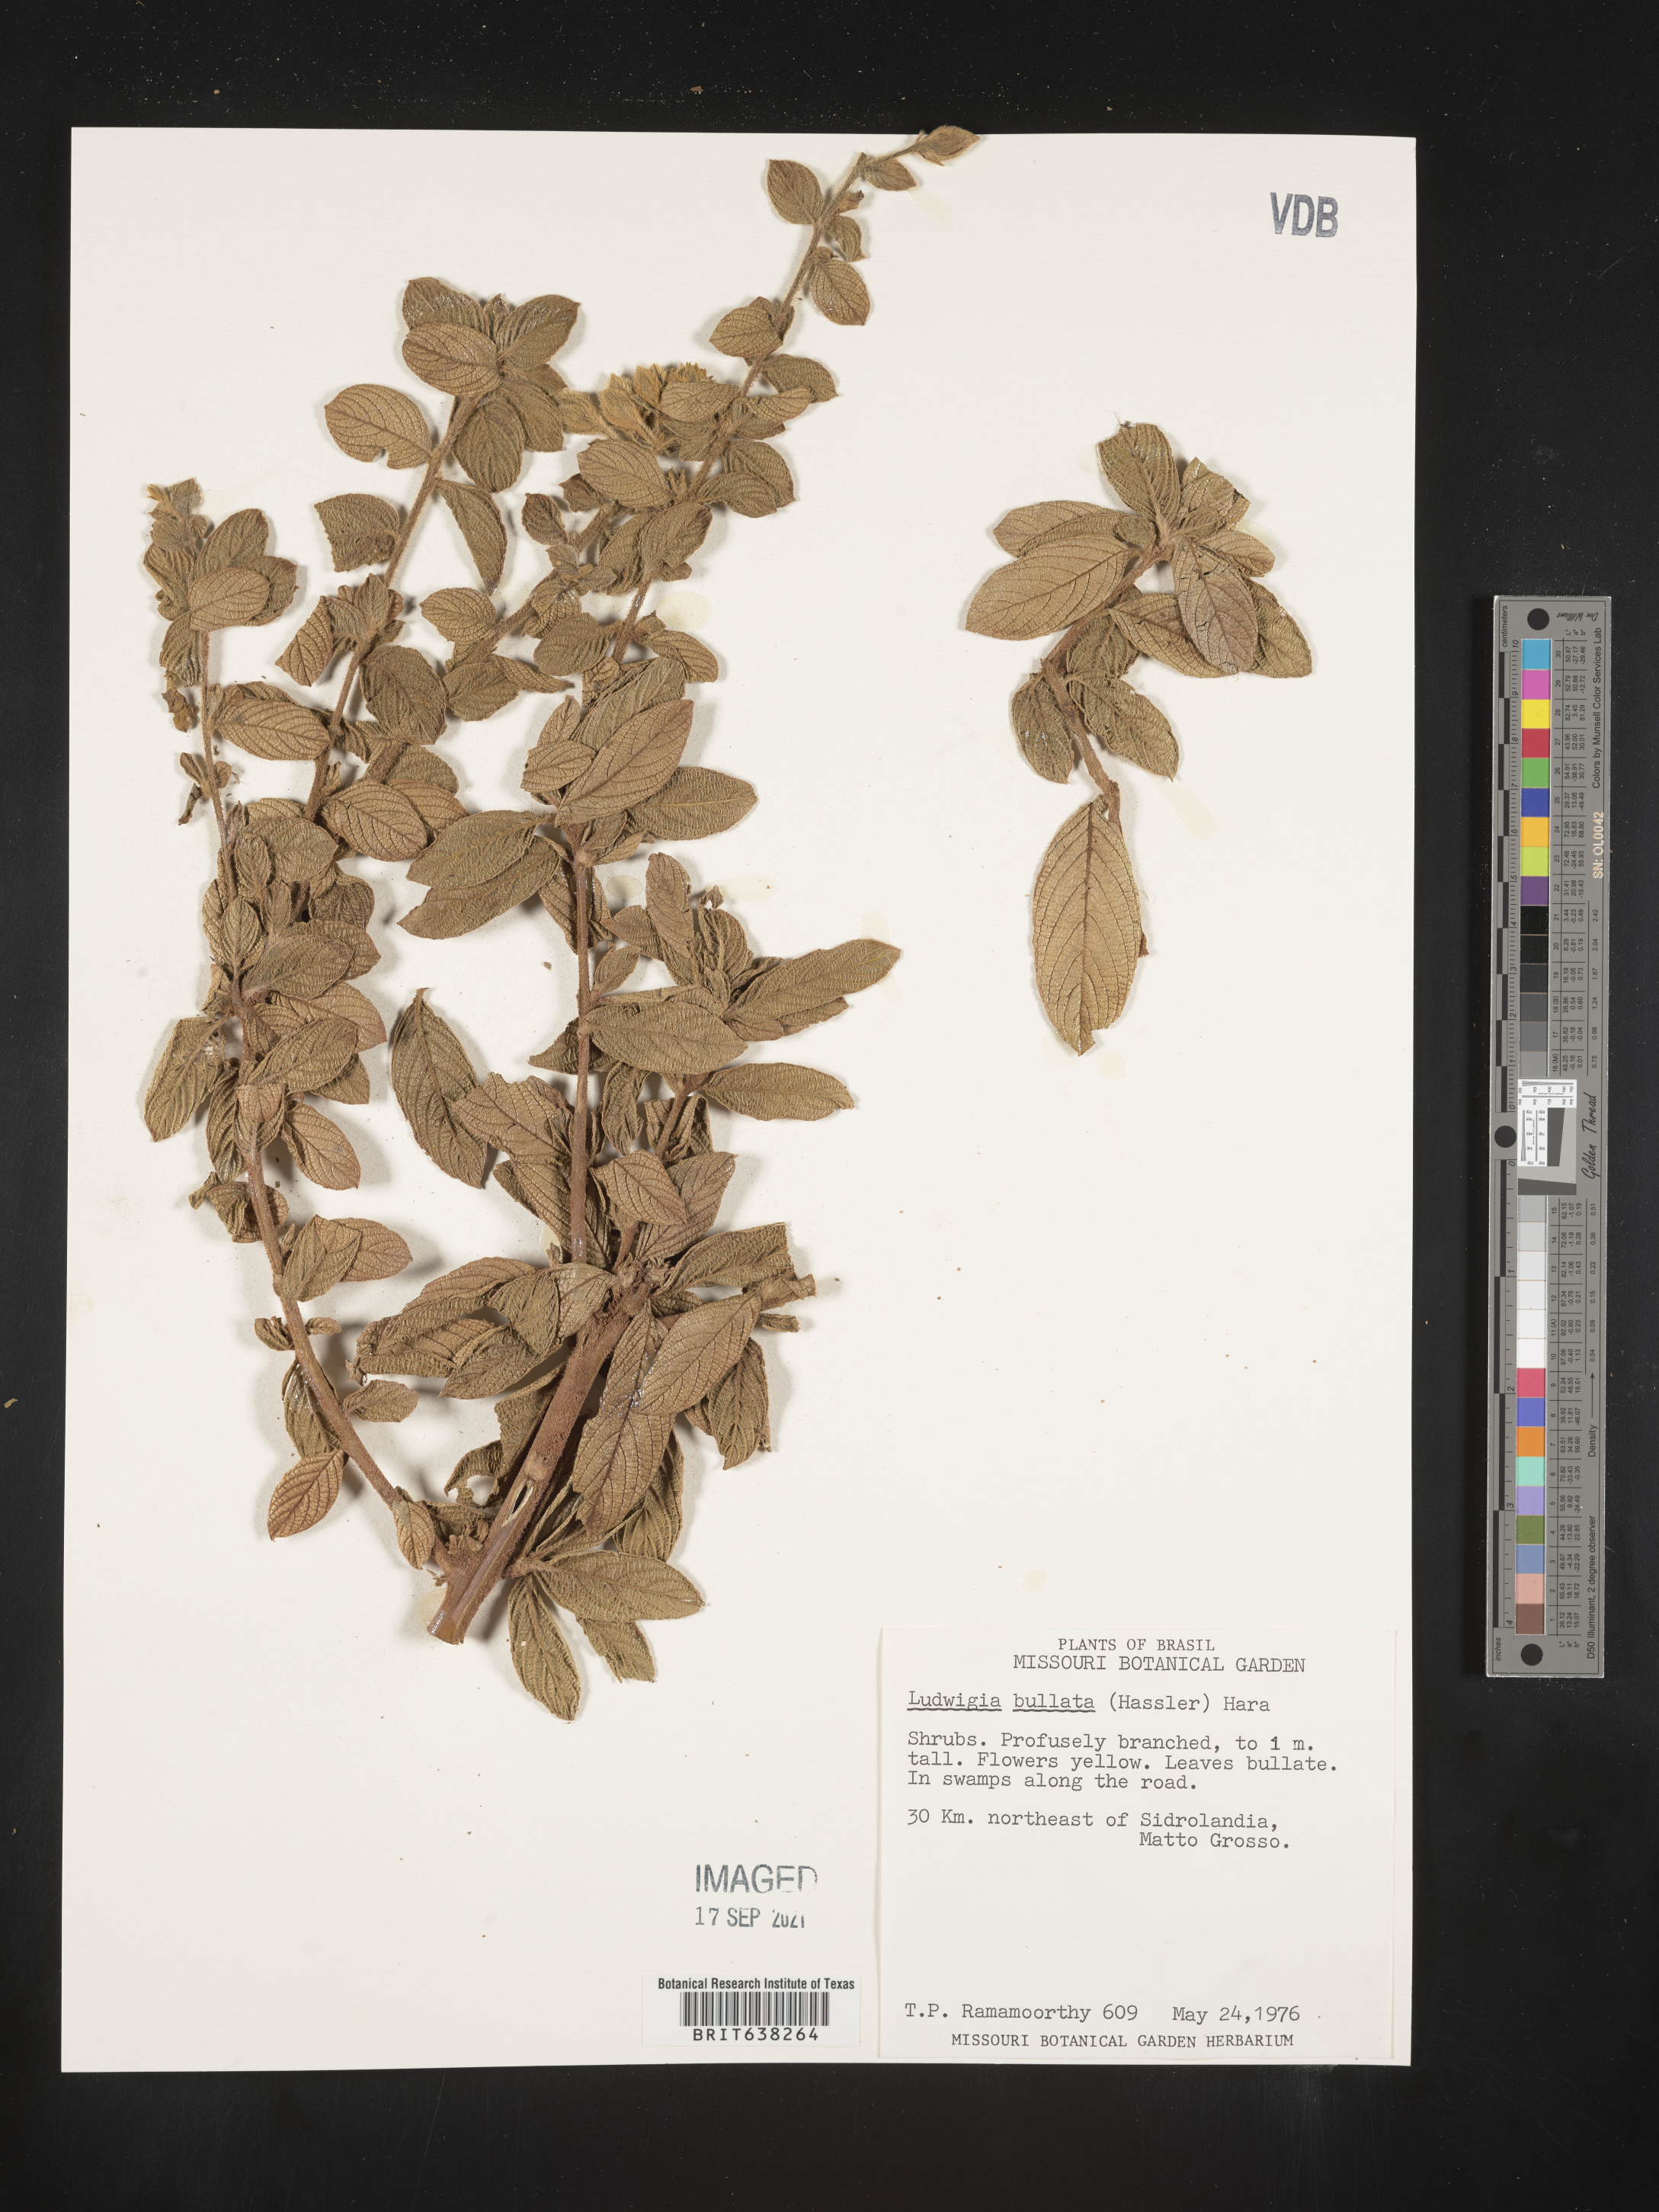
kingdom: Plantae
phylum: Tracheophyta
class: Magnoliopsida
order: Myrtales
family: Onagraceae
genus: Ludwigia
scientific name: Ludwigia
